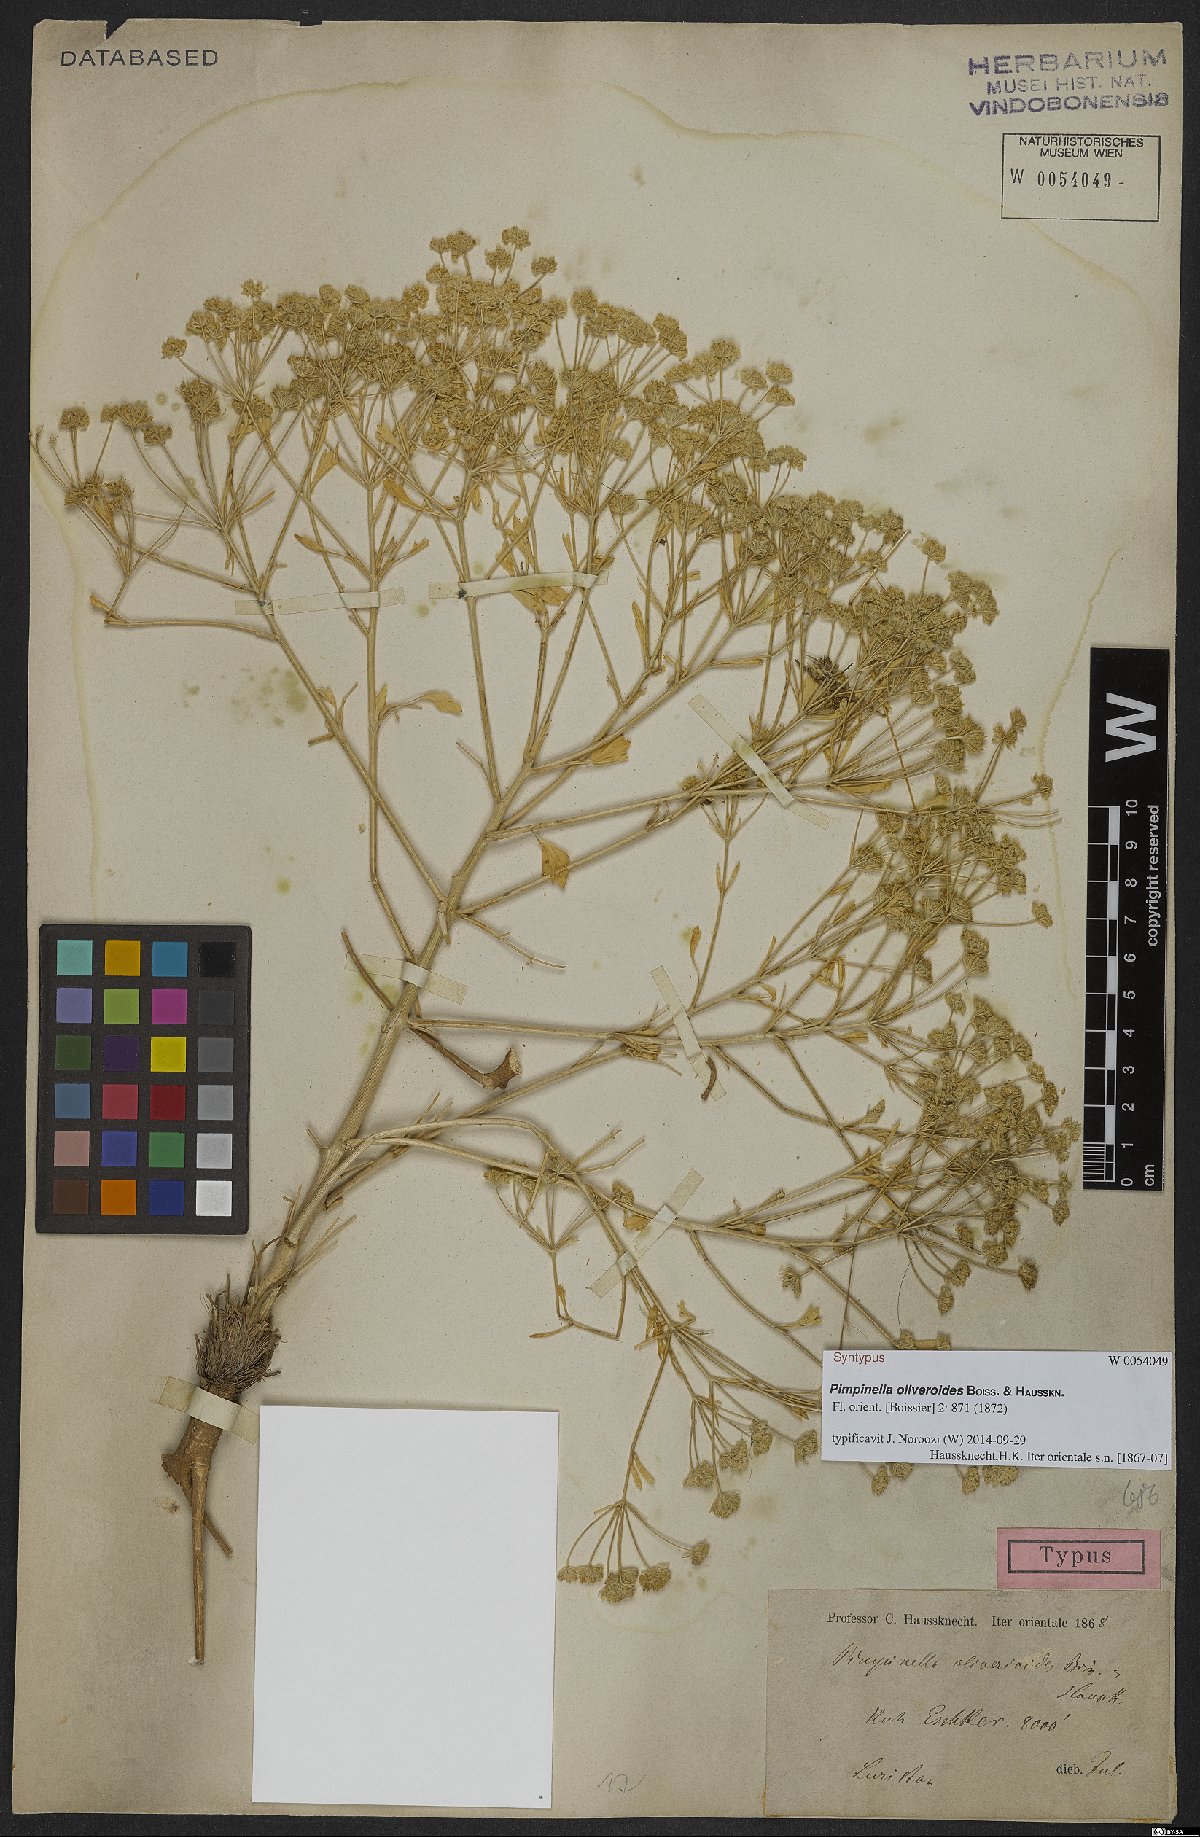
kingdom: Plantae
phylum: Tracheophyta
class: Magnoliopsida
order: Apiales
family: Apiaceae
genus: Pimpinella
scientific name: Pimpinella
